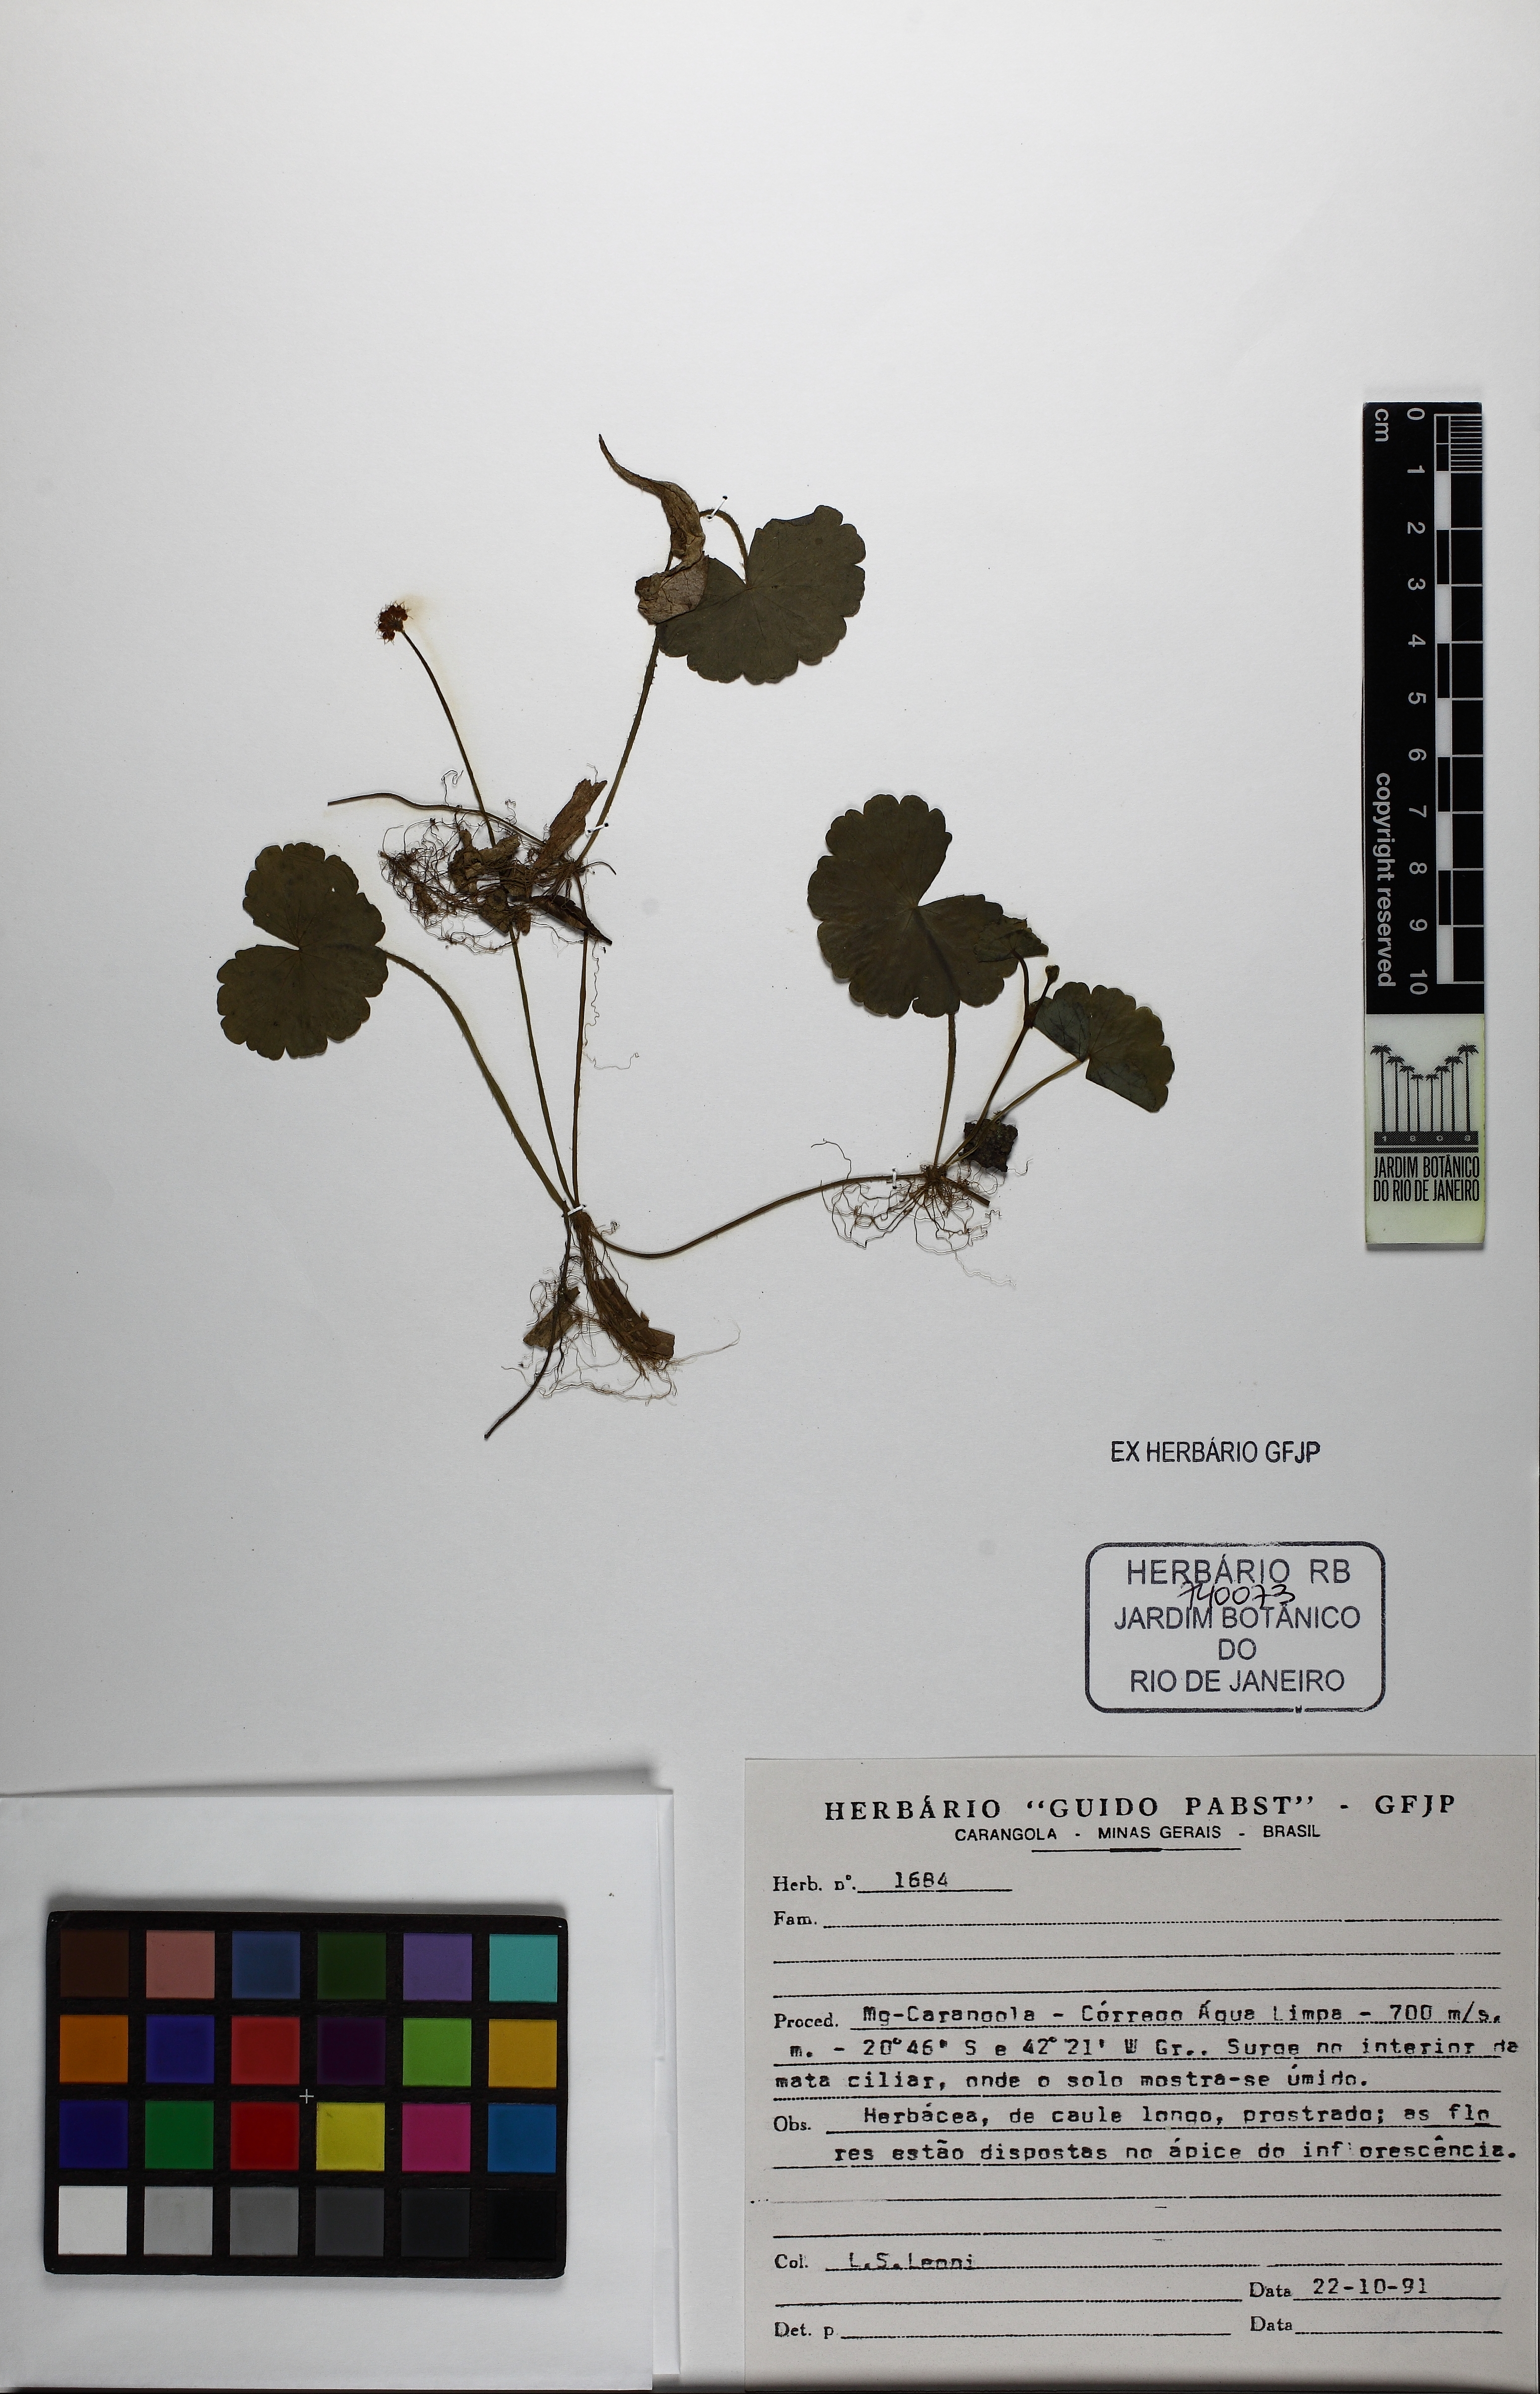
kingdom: Plantae
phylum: Tracheophyta
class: Magnoliopsida
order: Apiales
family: Araliaceae
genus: Hydrocotyle
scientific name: Hydrocotyle umbellata
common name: Water pennywort
